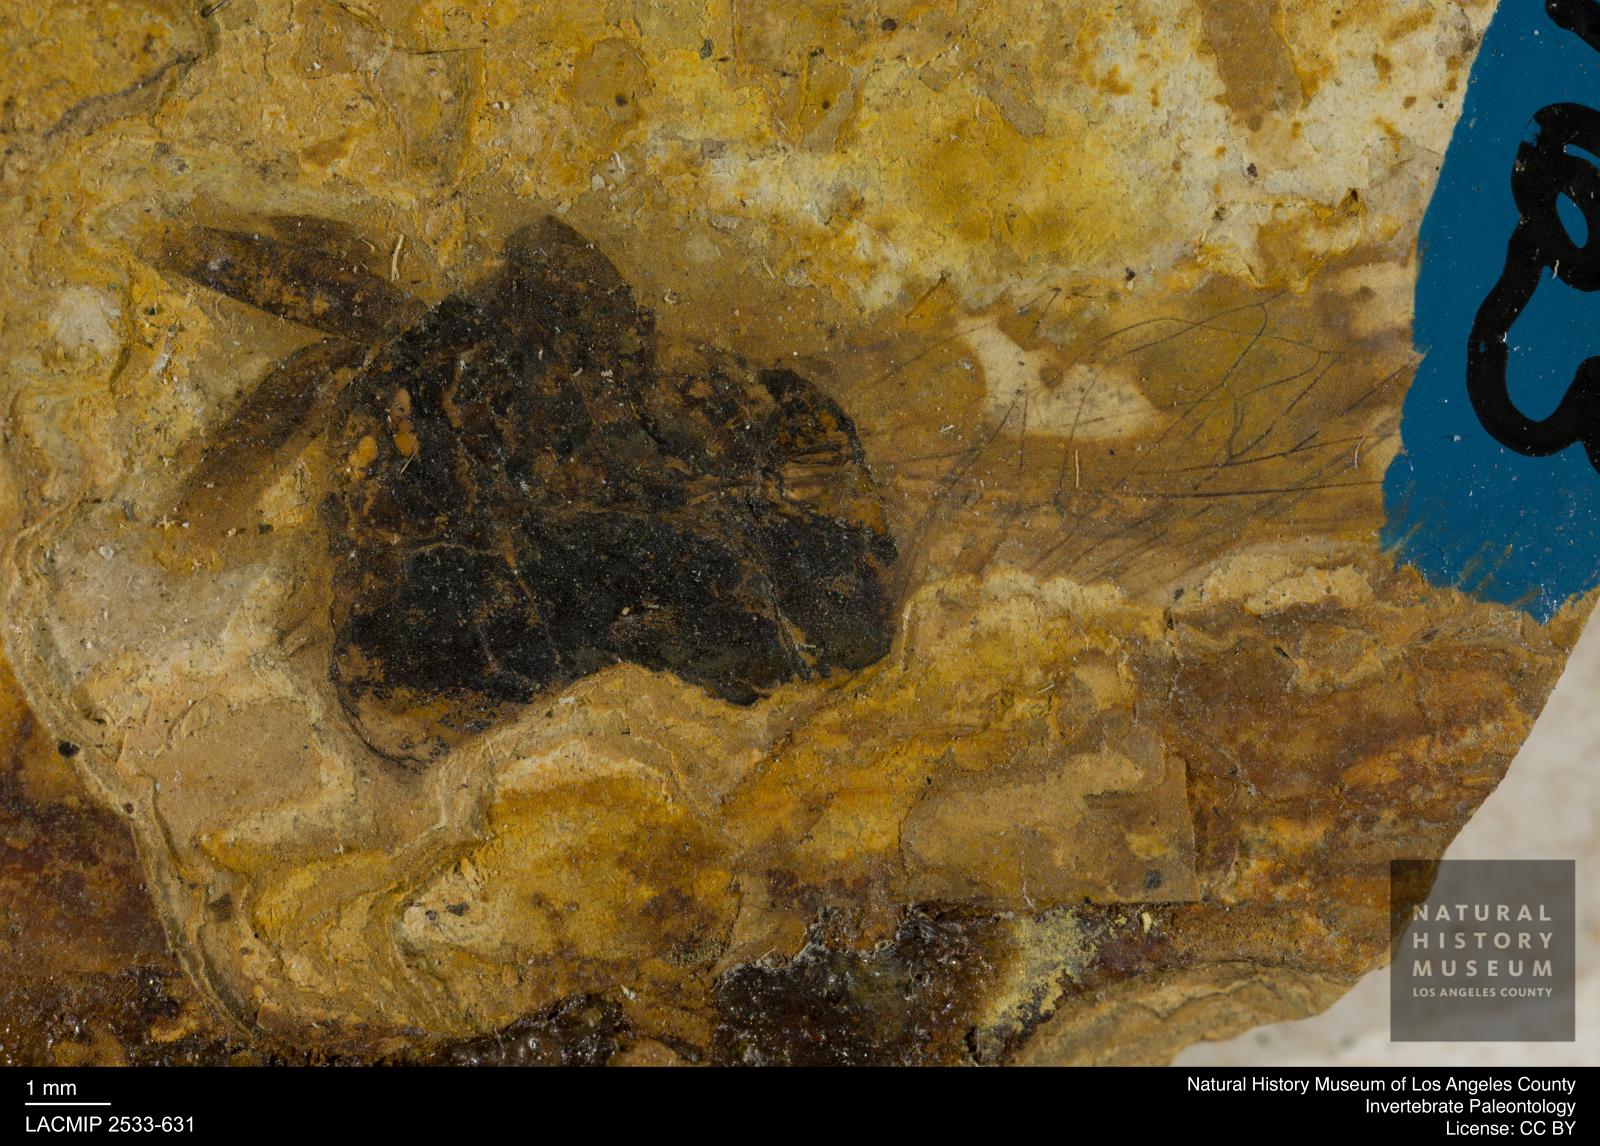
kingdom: Animalia
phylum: Arthropoda
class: Insecta
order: Diptera
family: Syrphidae
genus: Spilomyia
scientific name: Spilomyia
